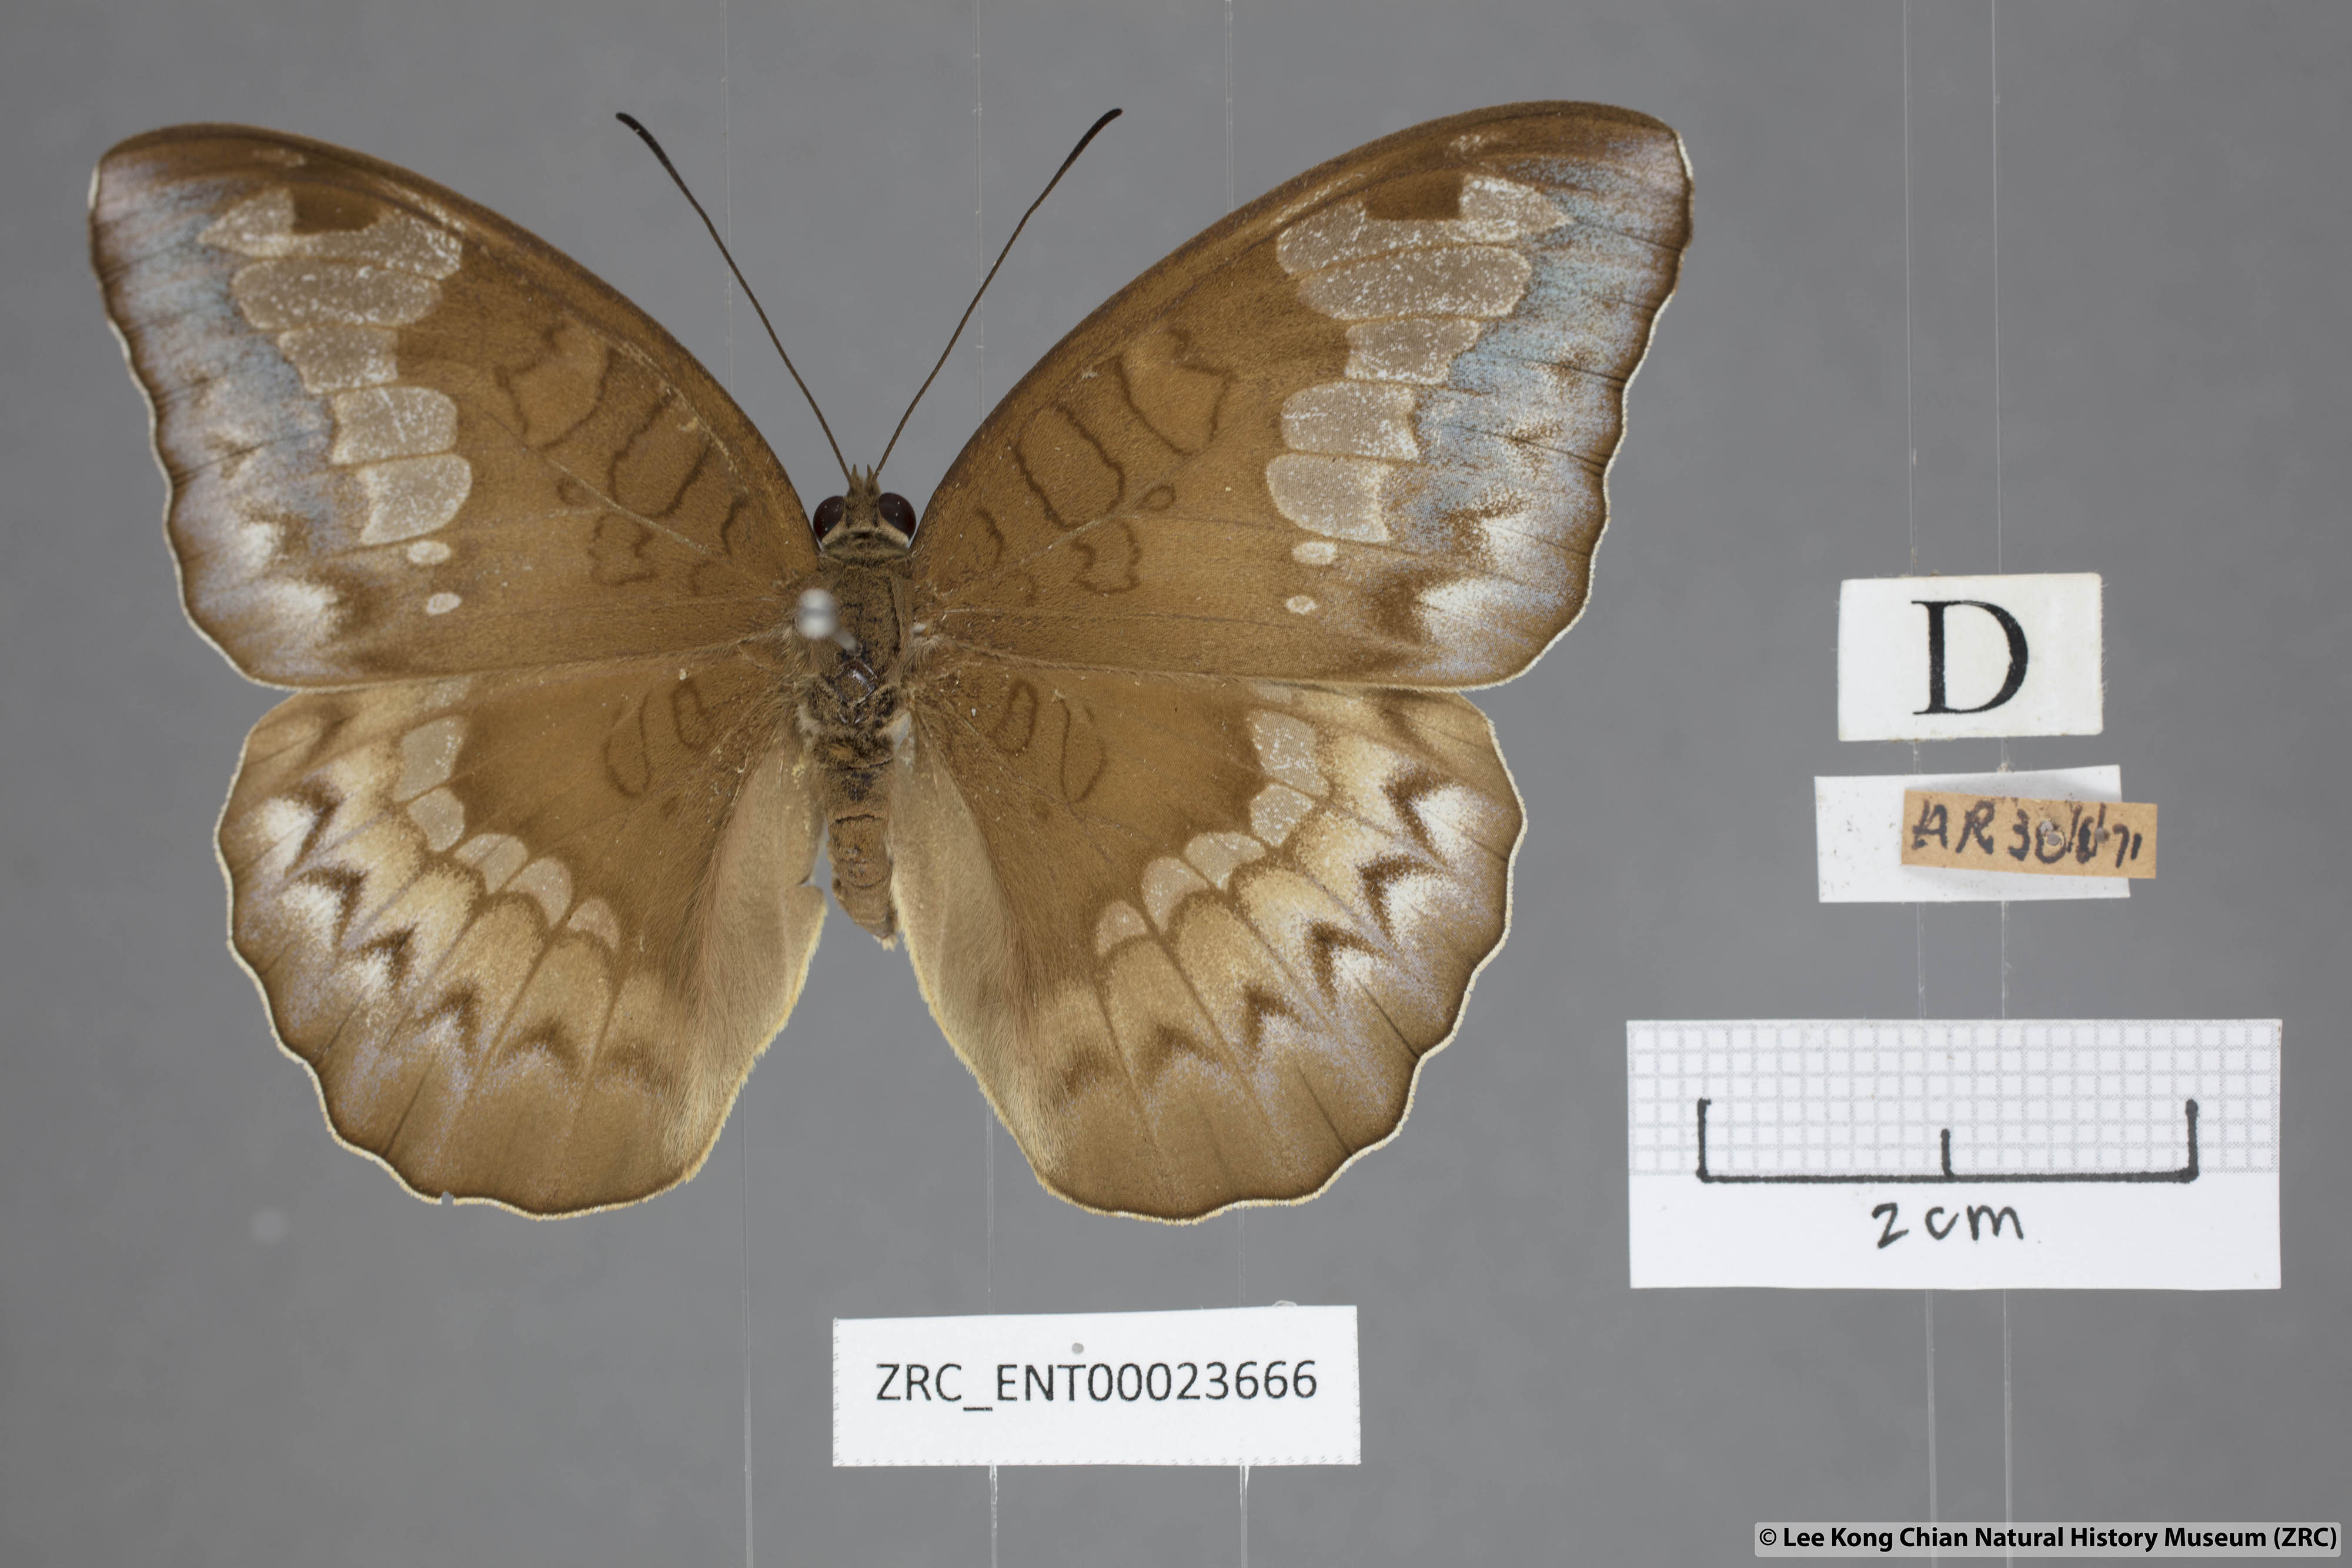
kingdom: Animalia
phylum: Arthropoda
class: Insecta
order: Lepidoptera
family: Nymphalidae
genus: Tanaecia
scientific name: Tanaecia godartii
